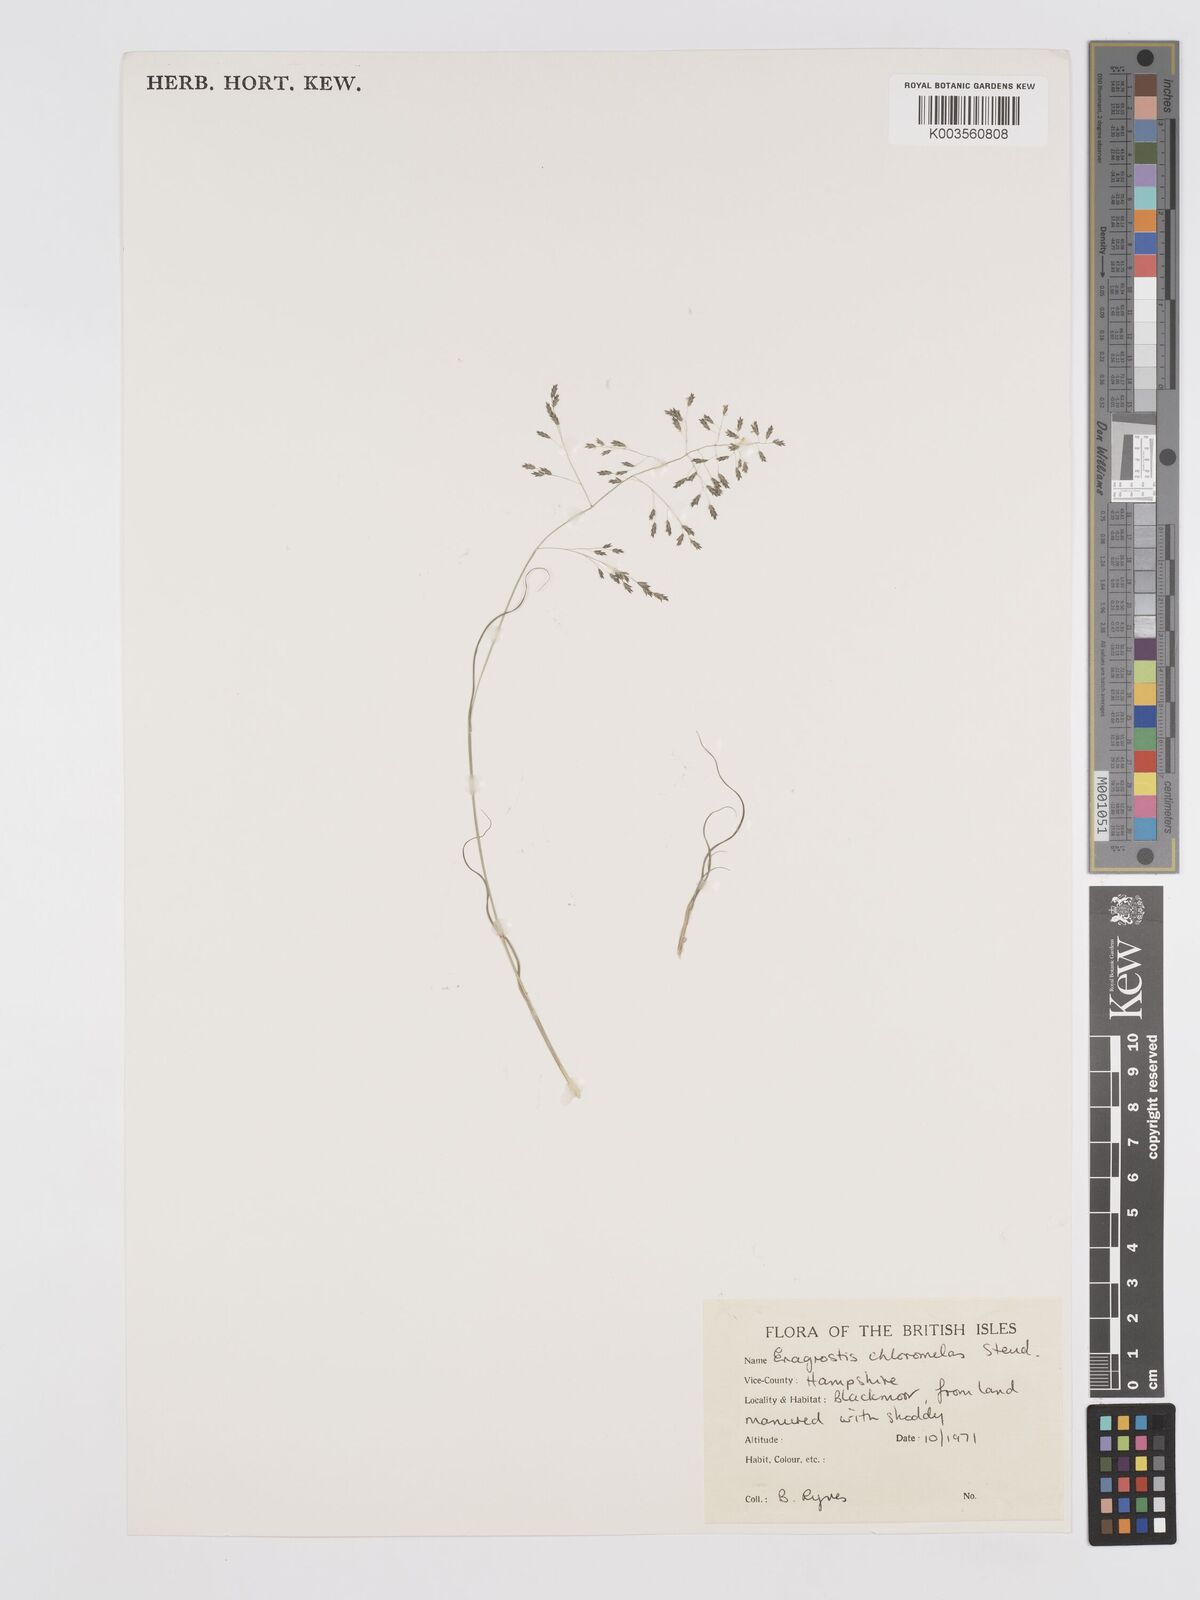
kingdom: Plantae
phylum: Tracheophyta
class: Liliopsida
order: Poales
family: Poaceae
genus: Eragrostis
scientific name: Eragrostis curvula
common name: African love-grass
